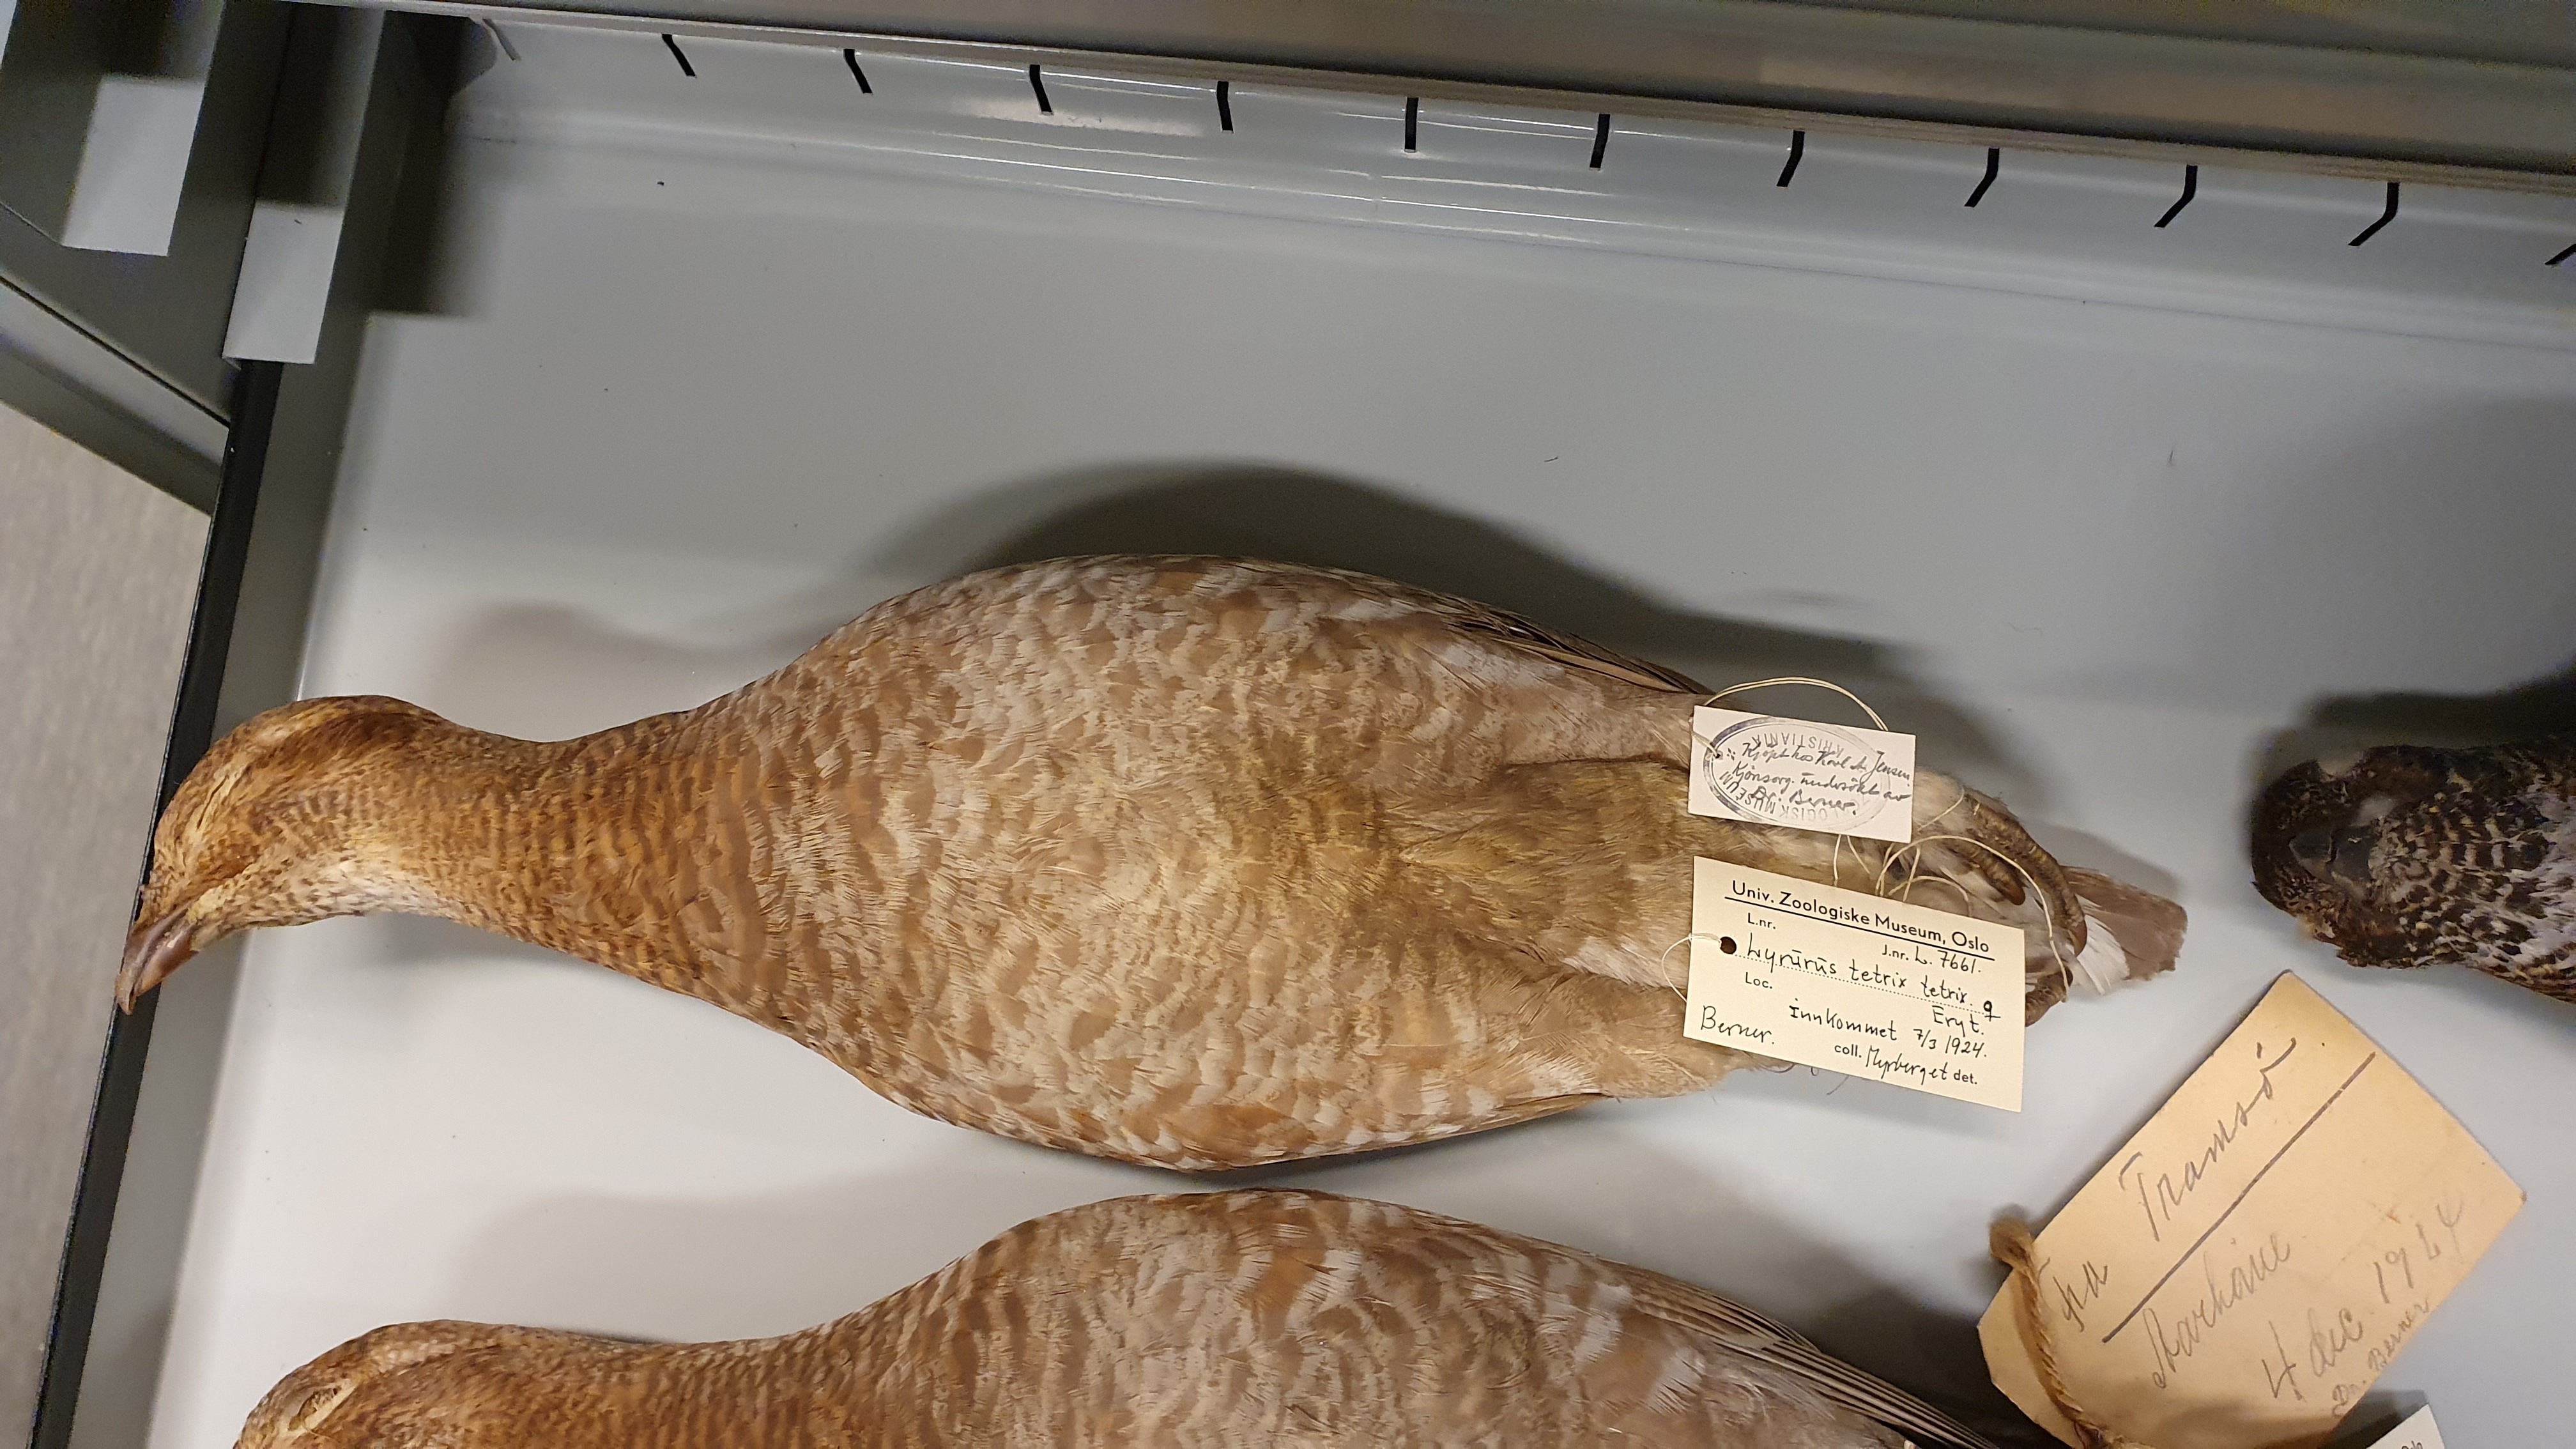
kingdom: Animalia
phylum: Chordata
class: Aves
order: Galliformes
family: Phasianidae
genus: Lyrurus
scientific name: Lyrurus tetrix
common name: Black grouse
